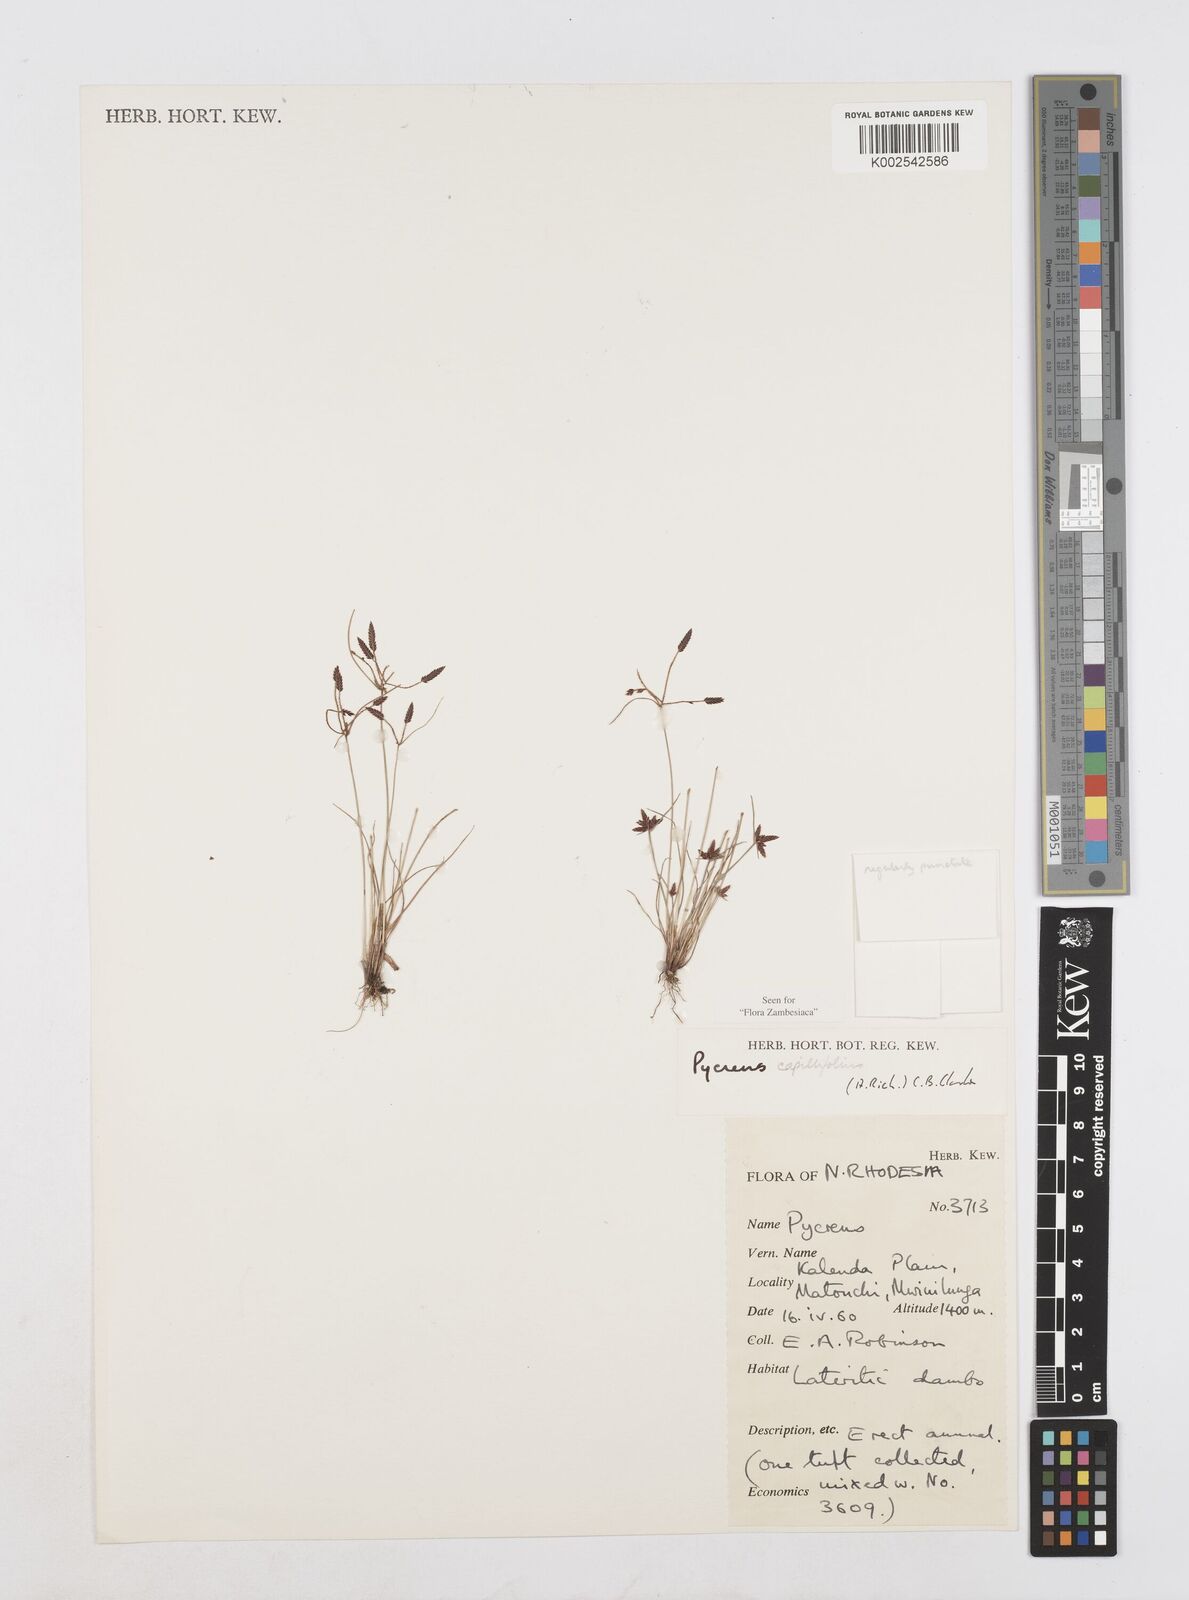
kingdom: Plantae
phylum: Tracheophyta
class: Liliopsida
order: Poales
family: Cyperaceae
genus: Cyperus
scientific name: Cyperus capillifolius
